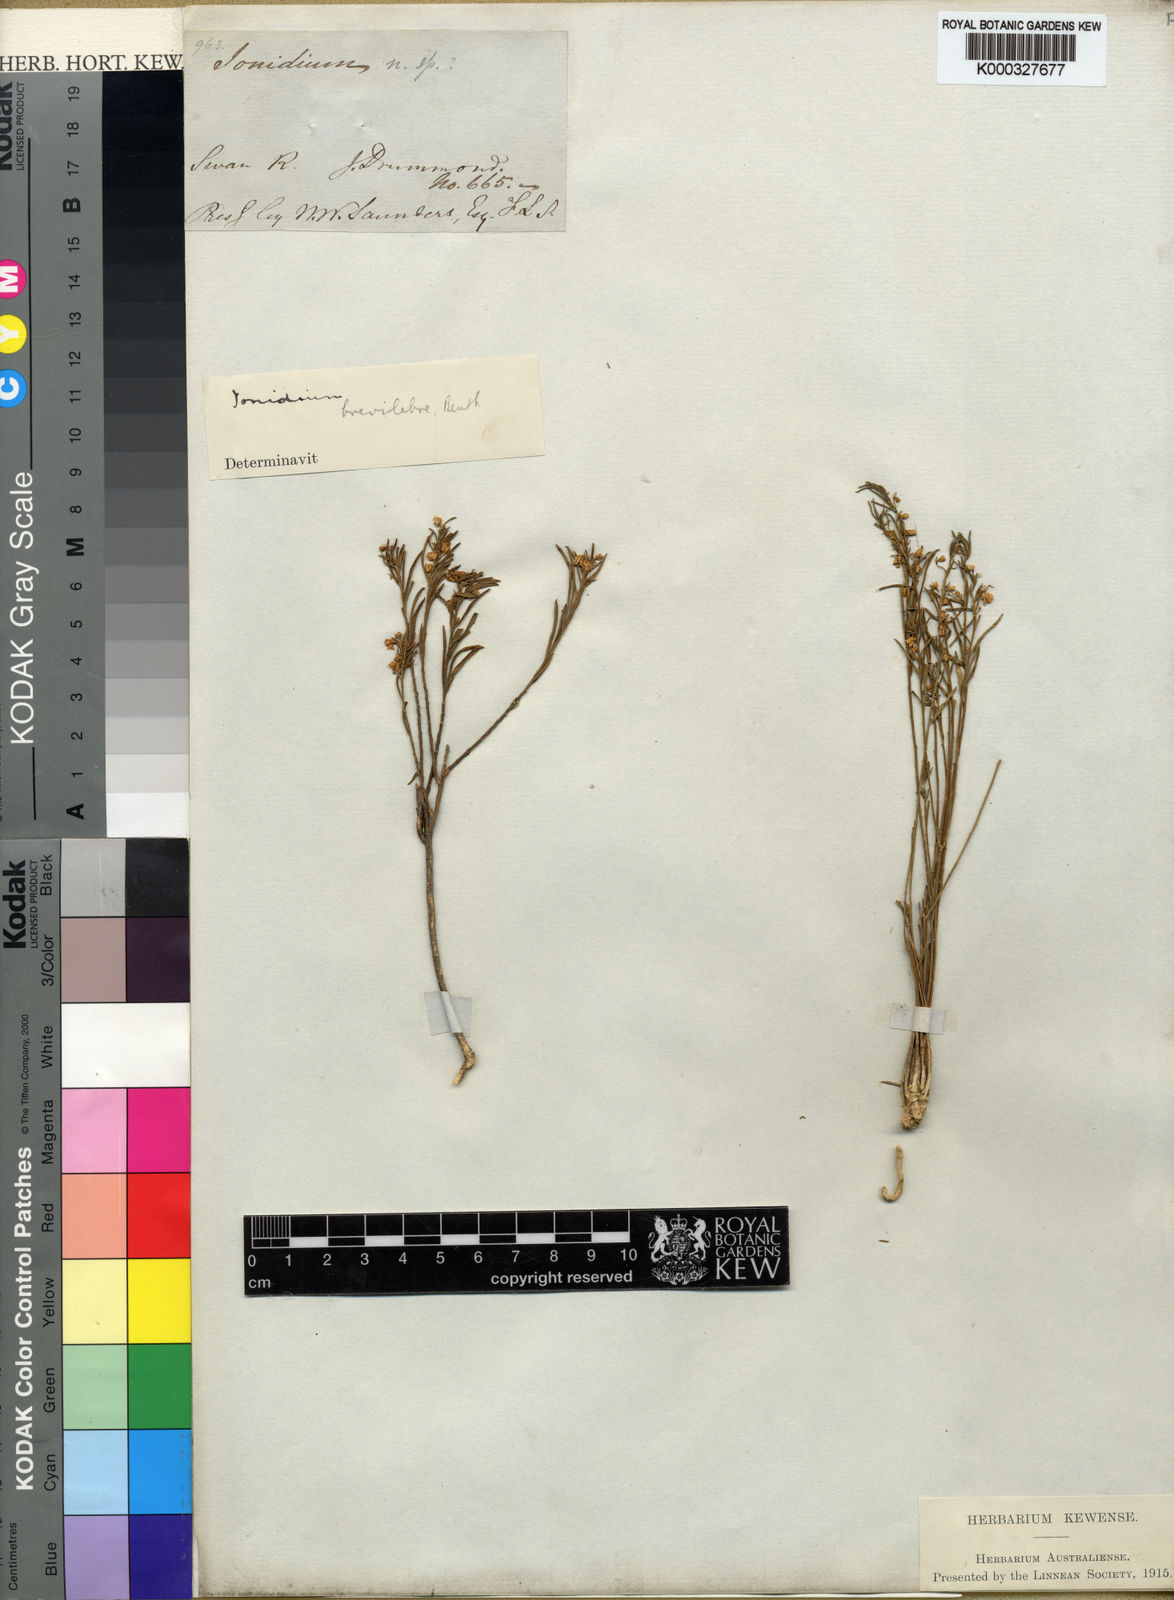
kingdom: Plantae
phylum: Tracheophyta
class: Magnoliopsida
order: Malpighiales
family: Violaceae
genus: Pigea
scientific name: Pigea floribunda
